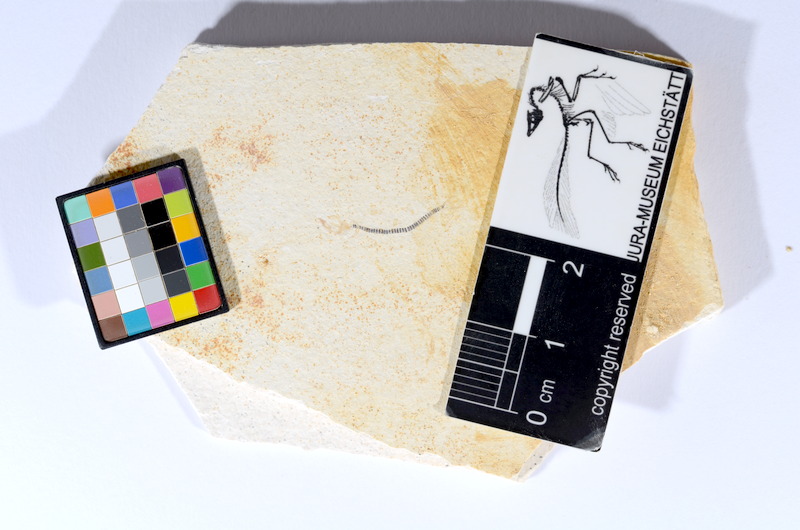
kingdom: Animalia
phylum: Chordata
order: Salmoniformes
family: Orthogonikleithridae
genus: Orthogonikleithrus
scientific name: Orthogonikleithrus hoelli
